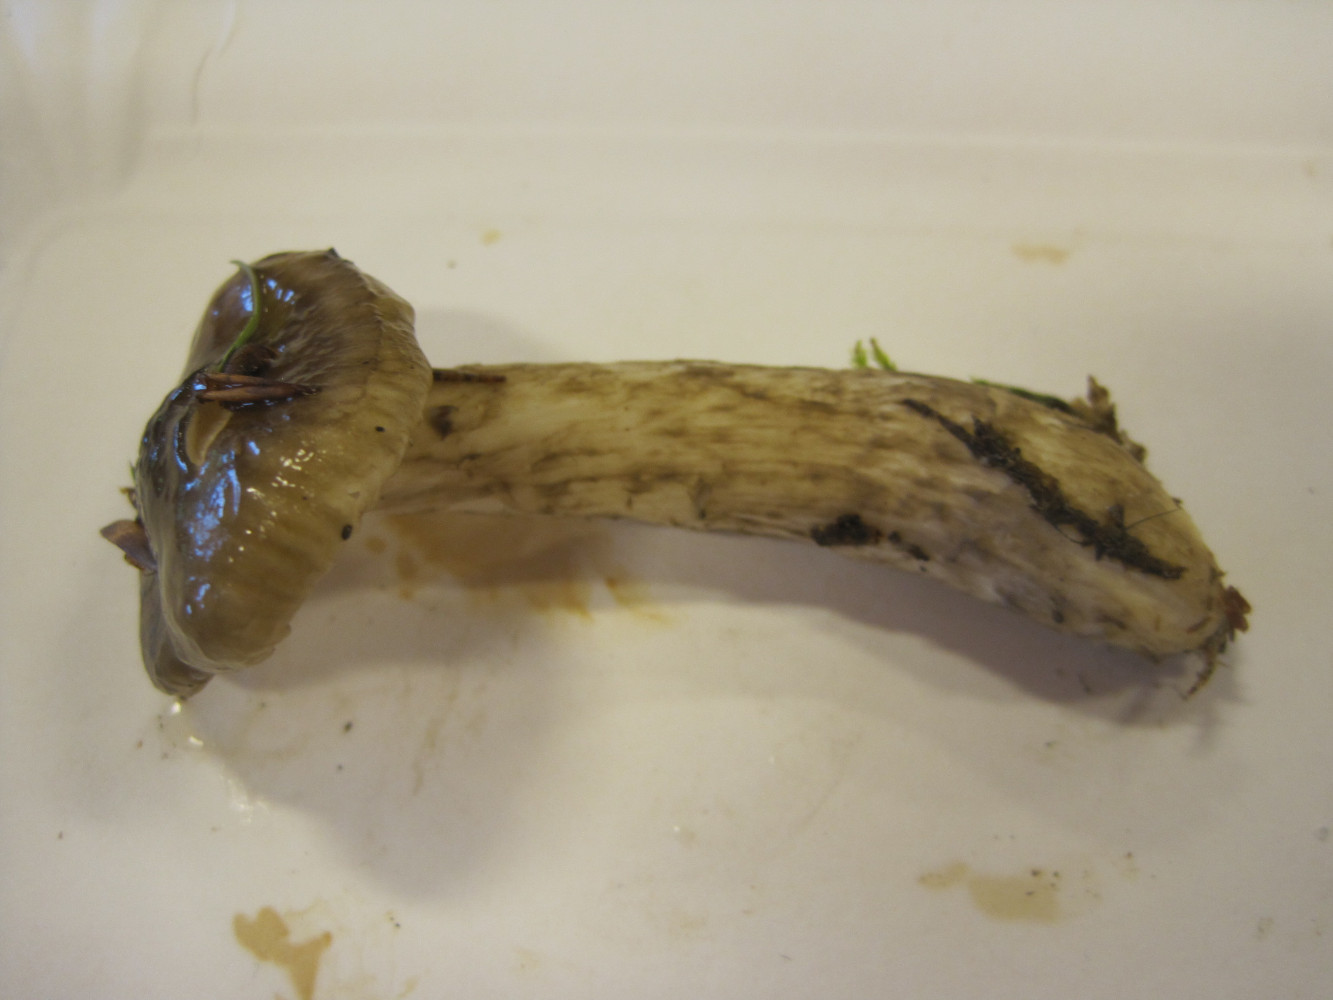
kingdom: Fungi
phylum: Basidiomycota
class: Agaricomycetes
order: Agaricales
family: Hygrophoraceae
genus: Hygrophorus
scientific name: Hygrophorus olivaceoalbus
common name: hvidbrun sneglehat
